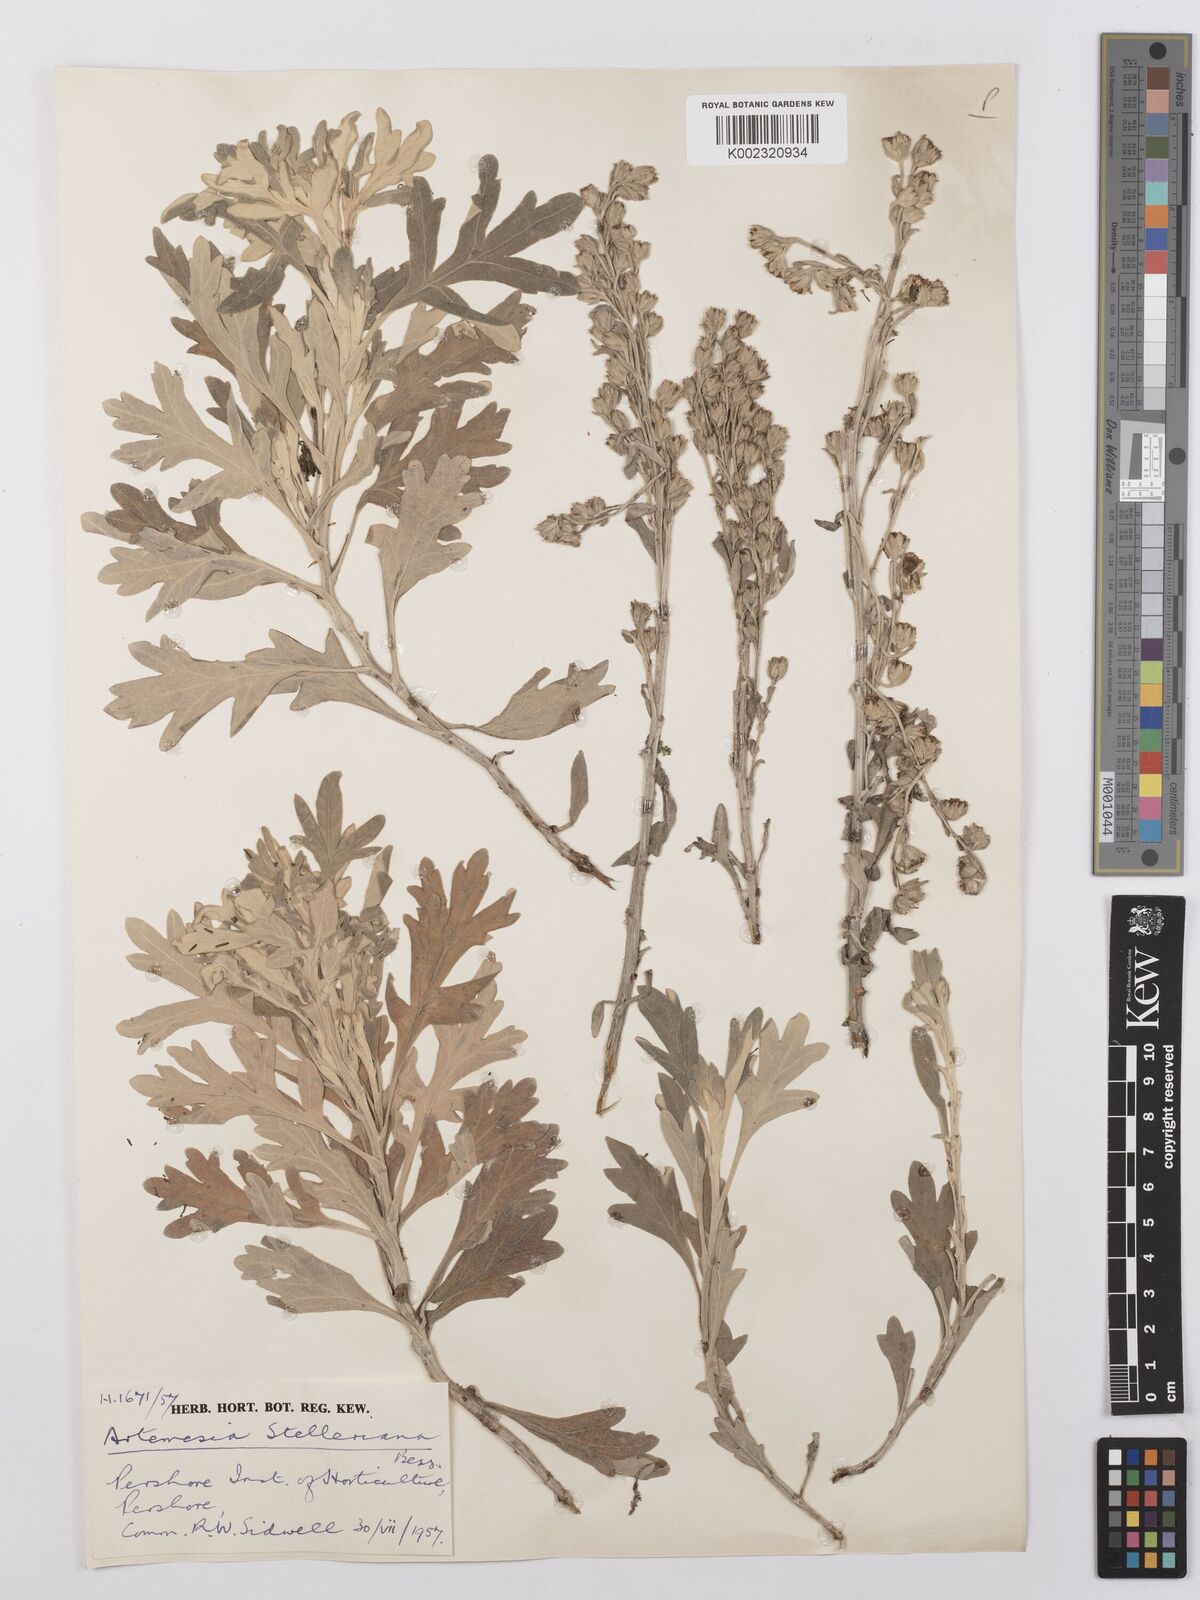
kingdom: Plantae
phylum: Tracheophyta
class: Magnoliopsida
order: Asterales
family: Asteraceae
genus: Artemisia
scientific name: Artemisia stelleriana
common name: Beach wormwood
